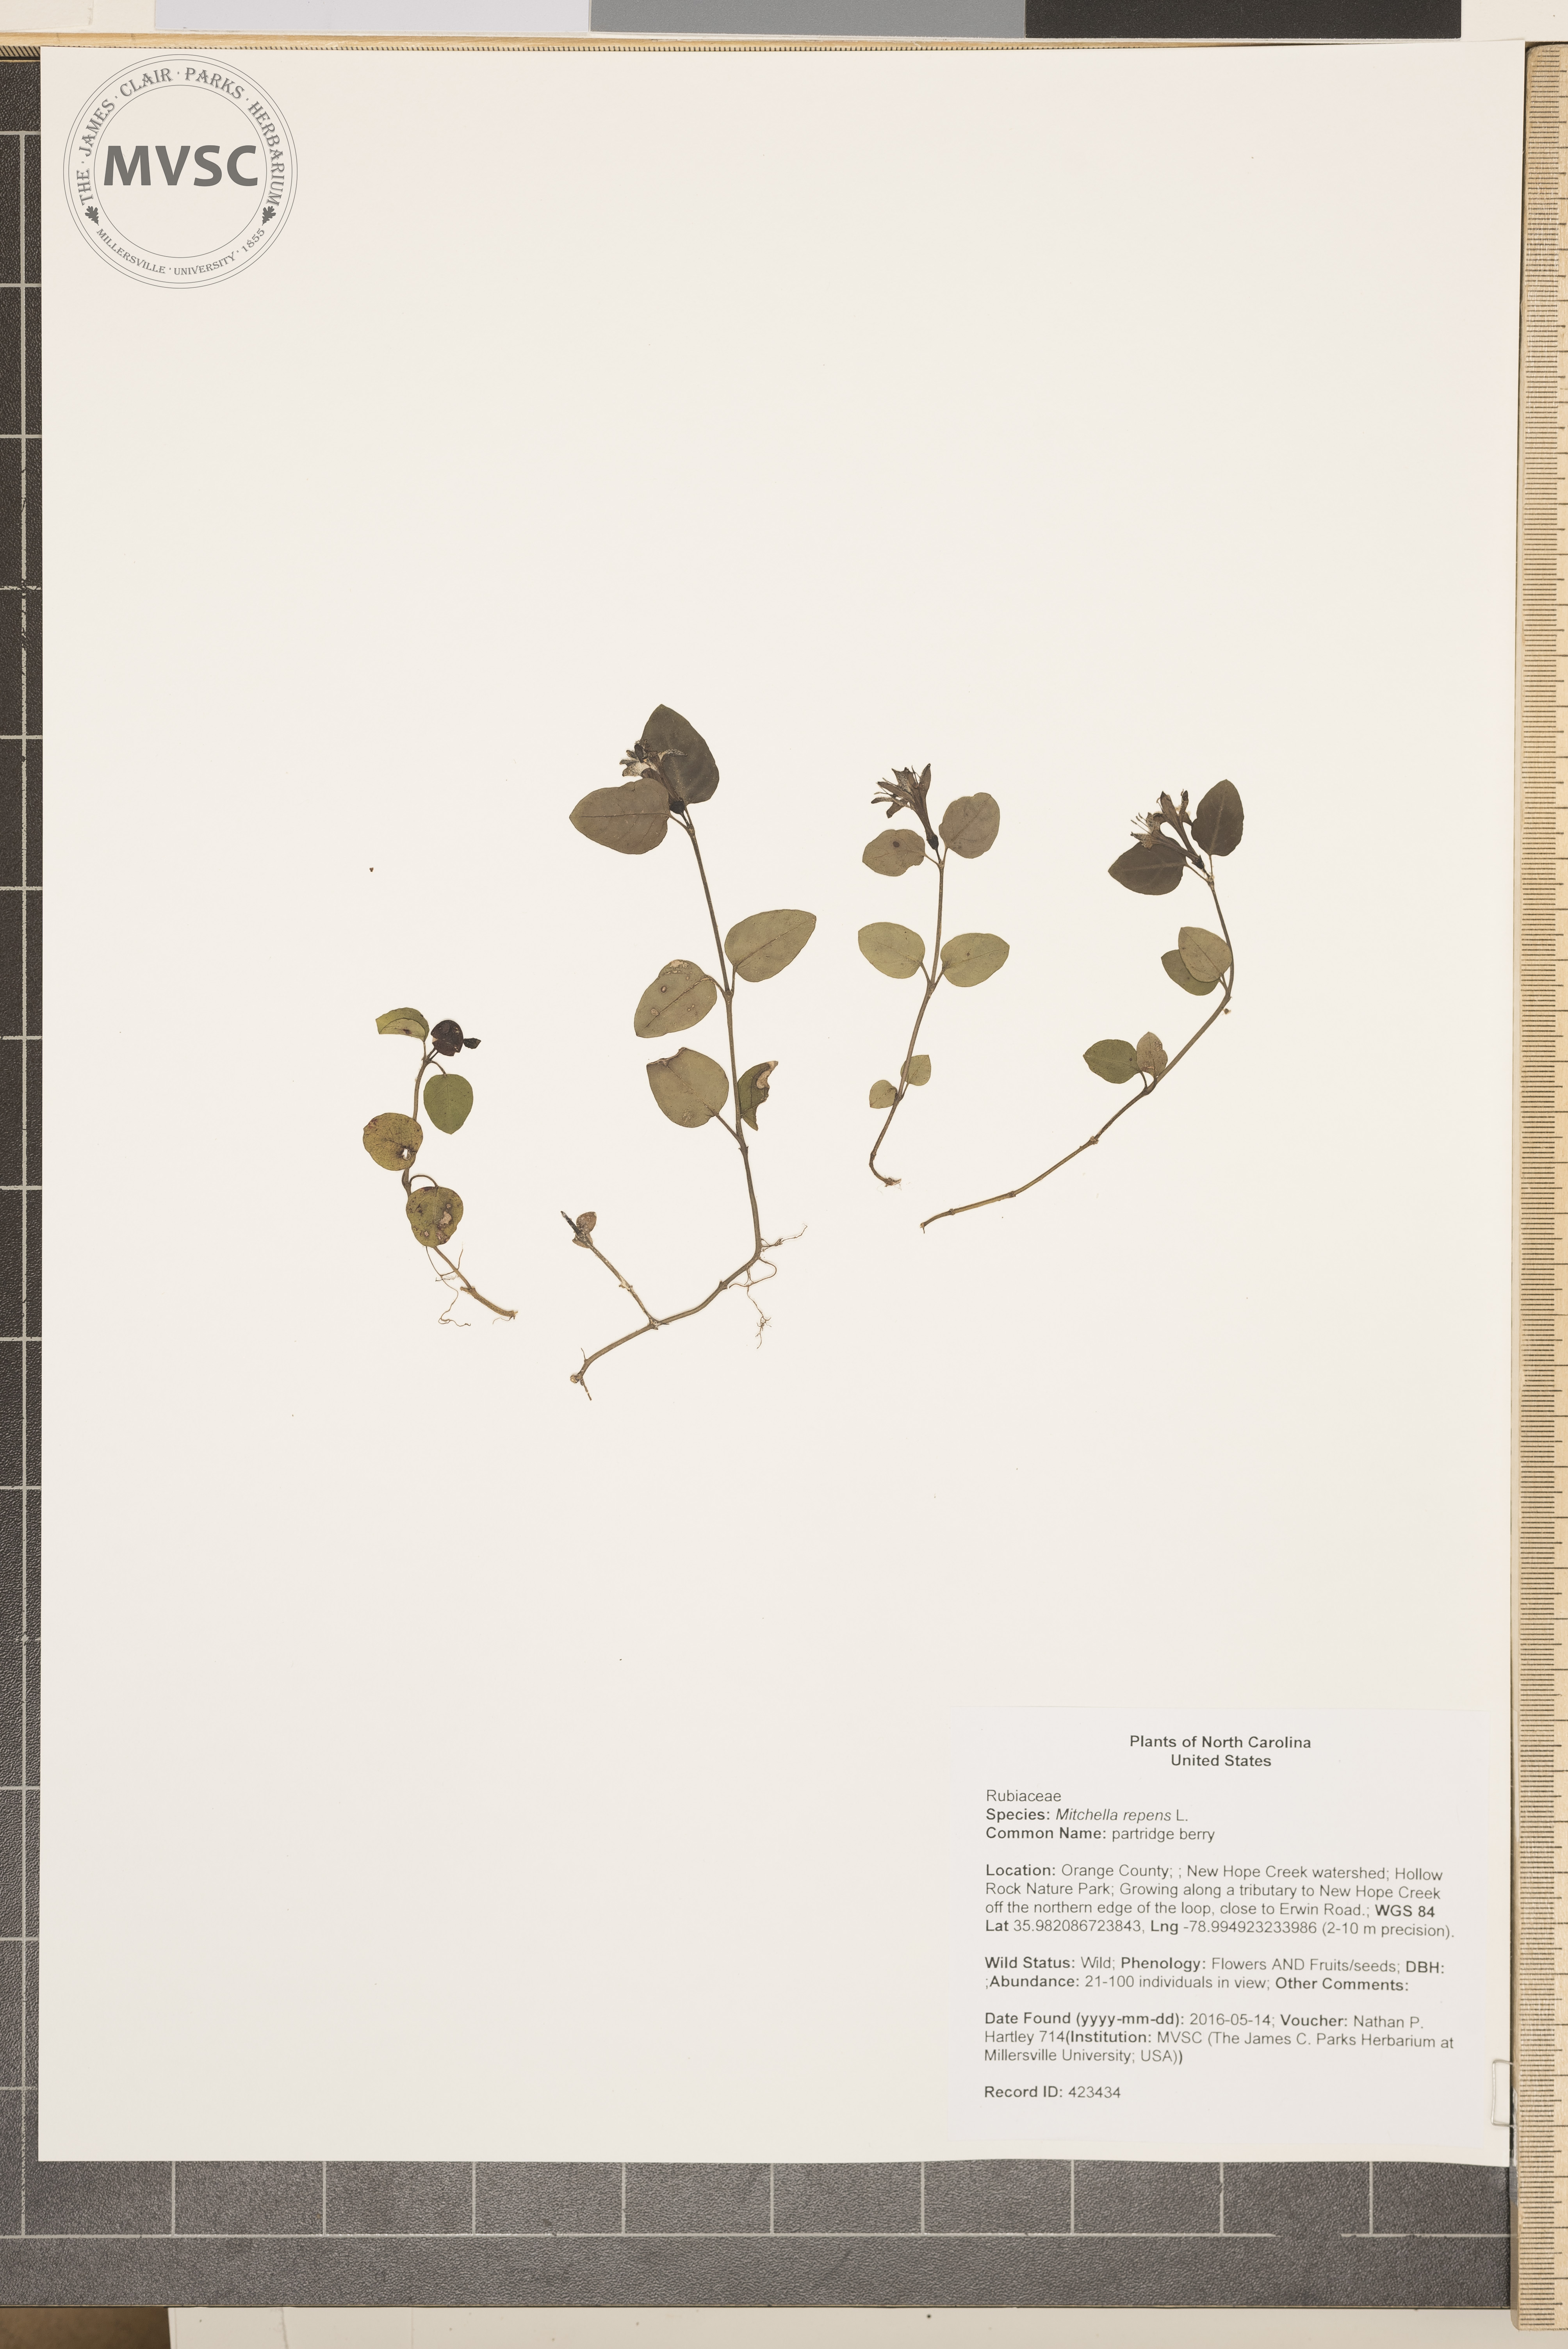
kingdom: Plantae
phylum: Tracheophyta
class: Magnoliopsida
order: Gentianales
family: Rubiaceae
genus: Mitchella
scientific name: Mitchella repens
